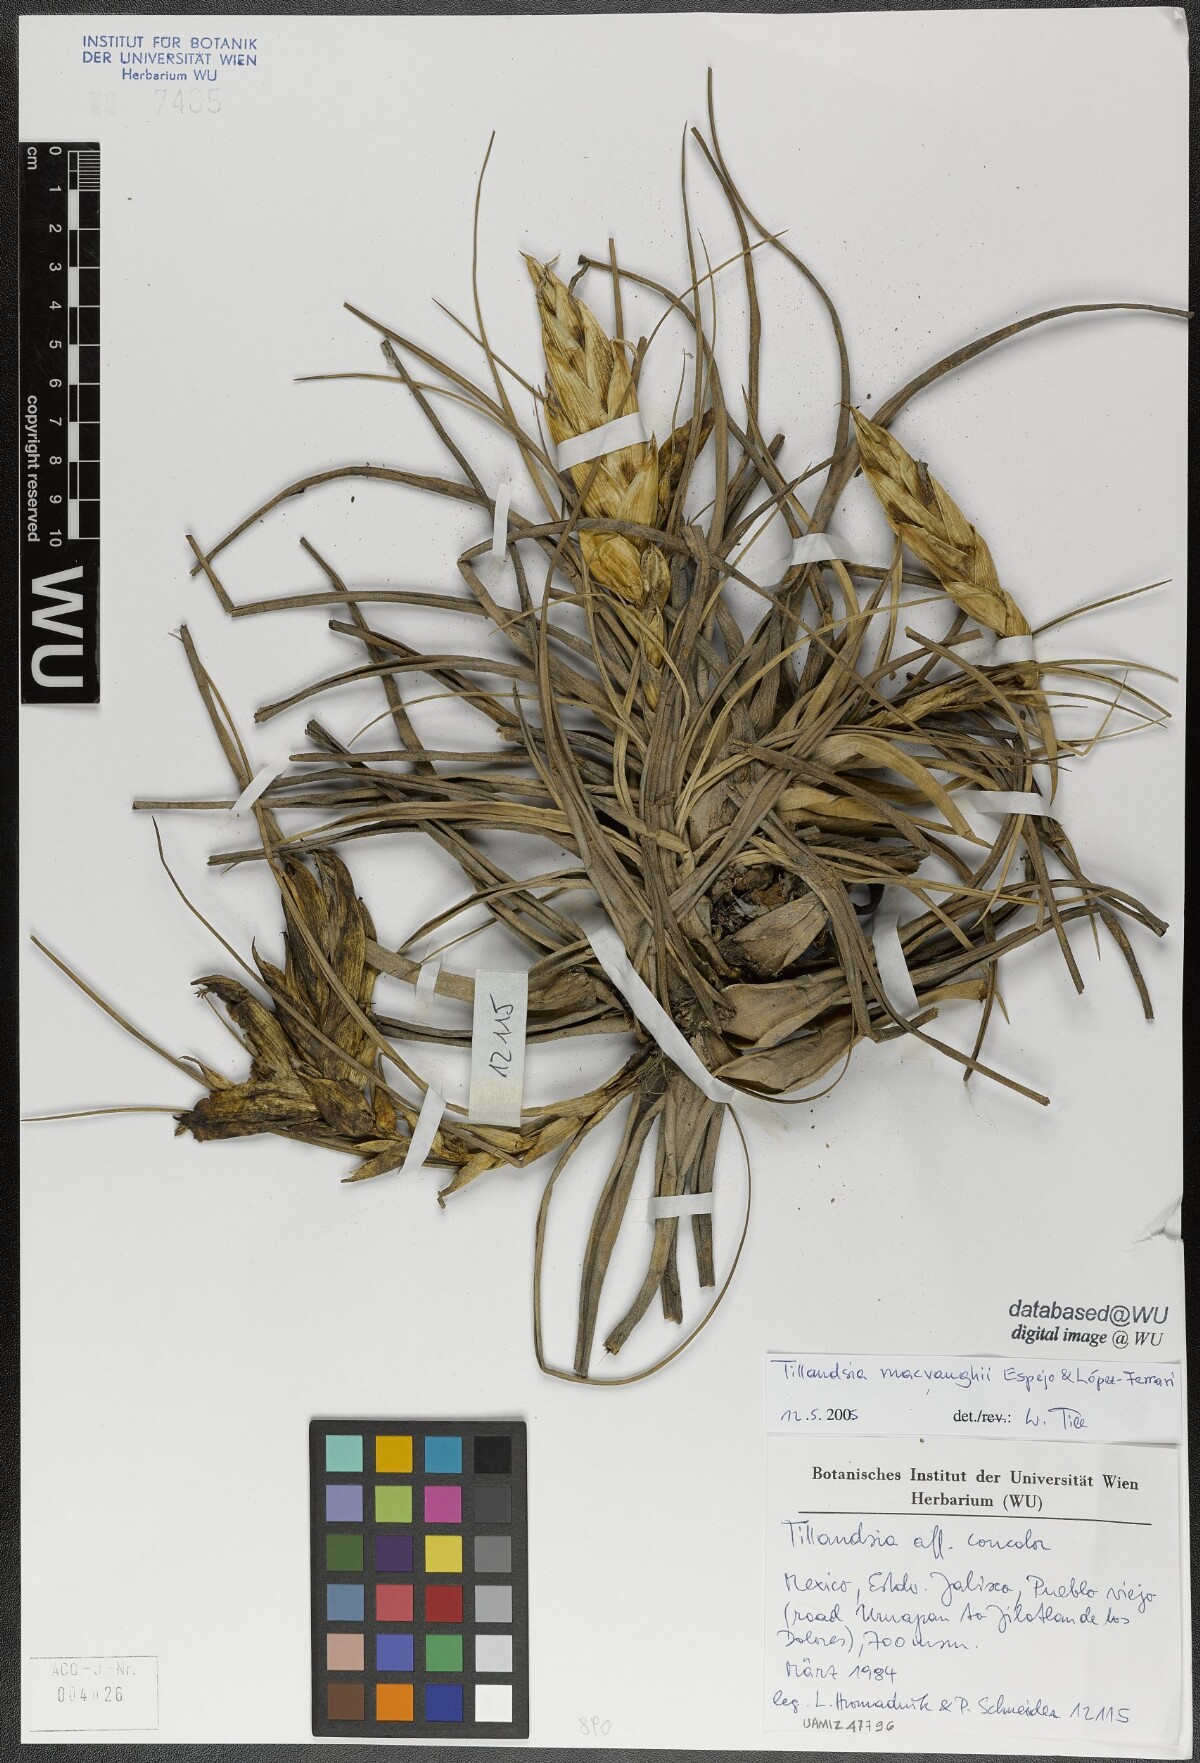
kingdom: Plantae
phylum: Tracheophyta
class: Liliopsida
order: Poales
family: Bromeliaceae
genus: Tillandsia
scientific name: Tillandsia macvaughii
